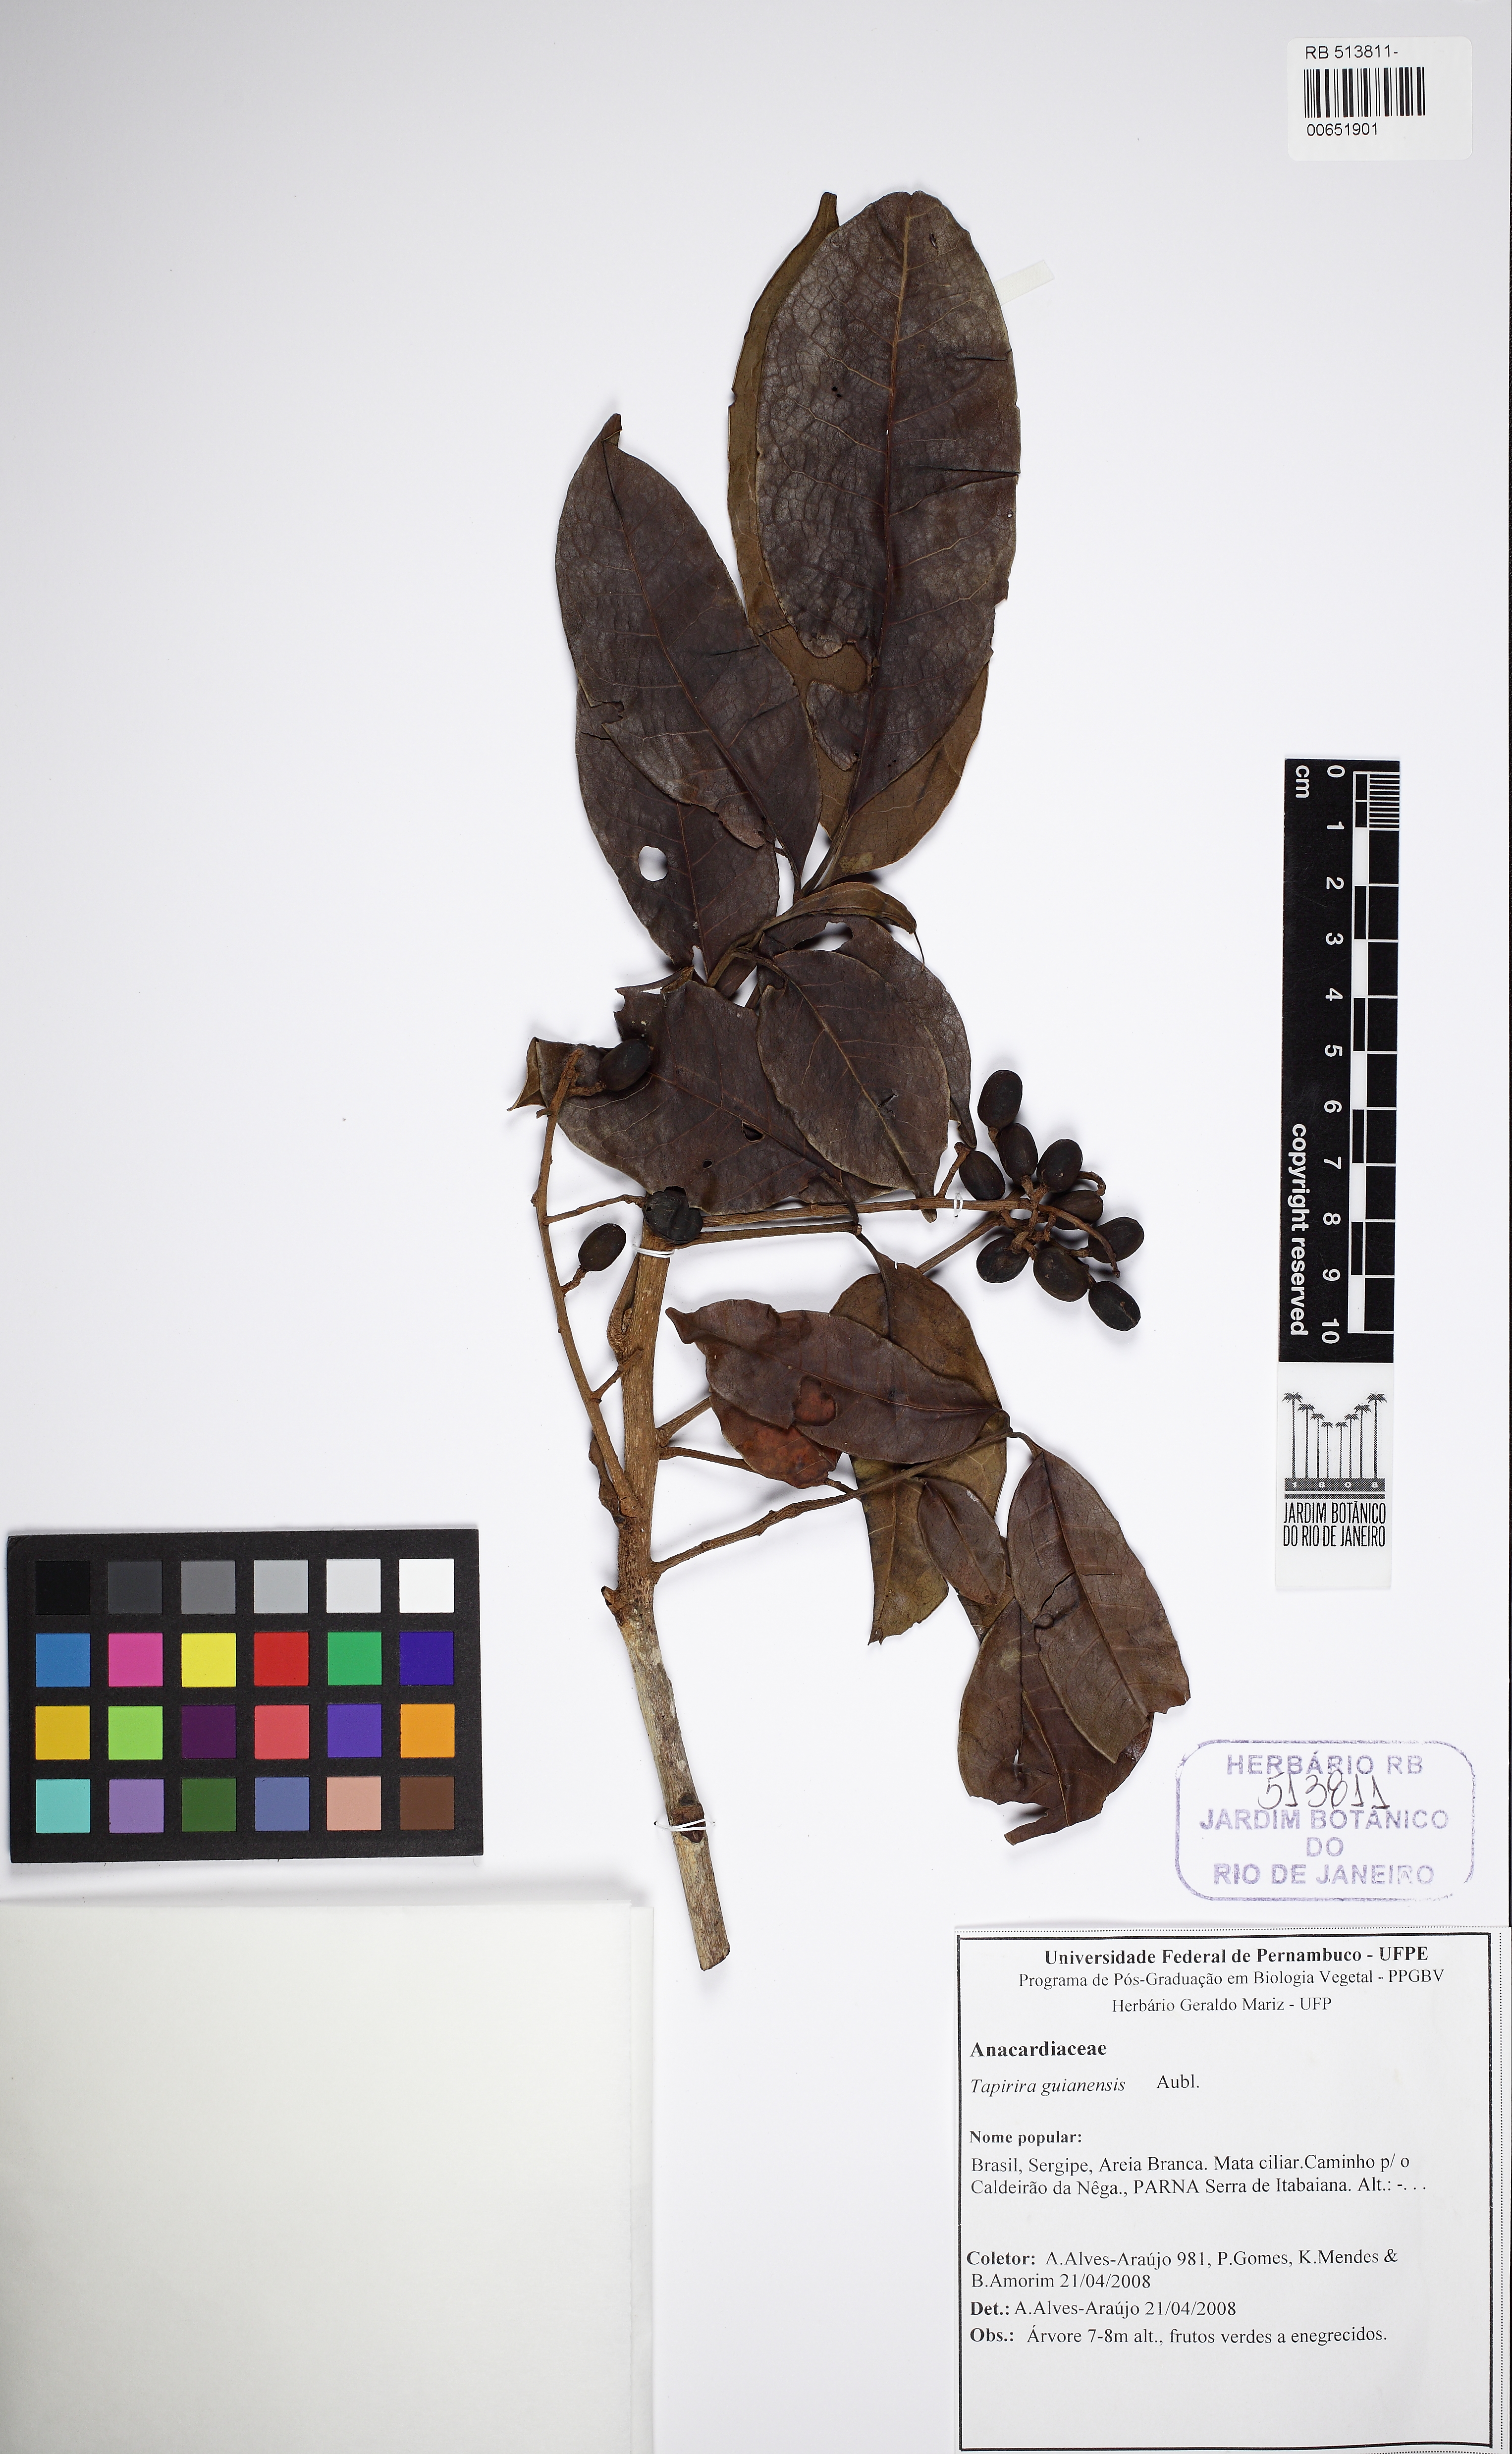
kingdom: Plantae
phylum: Tracheophyta
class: Magnoliopsida
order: Sapindales
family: Anacardiaceae
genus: Tapirira
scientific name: Tapirira guianensis
